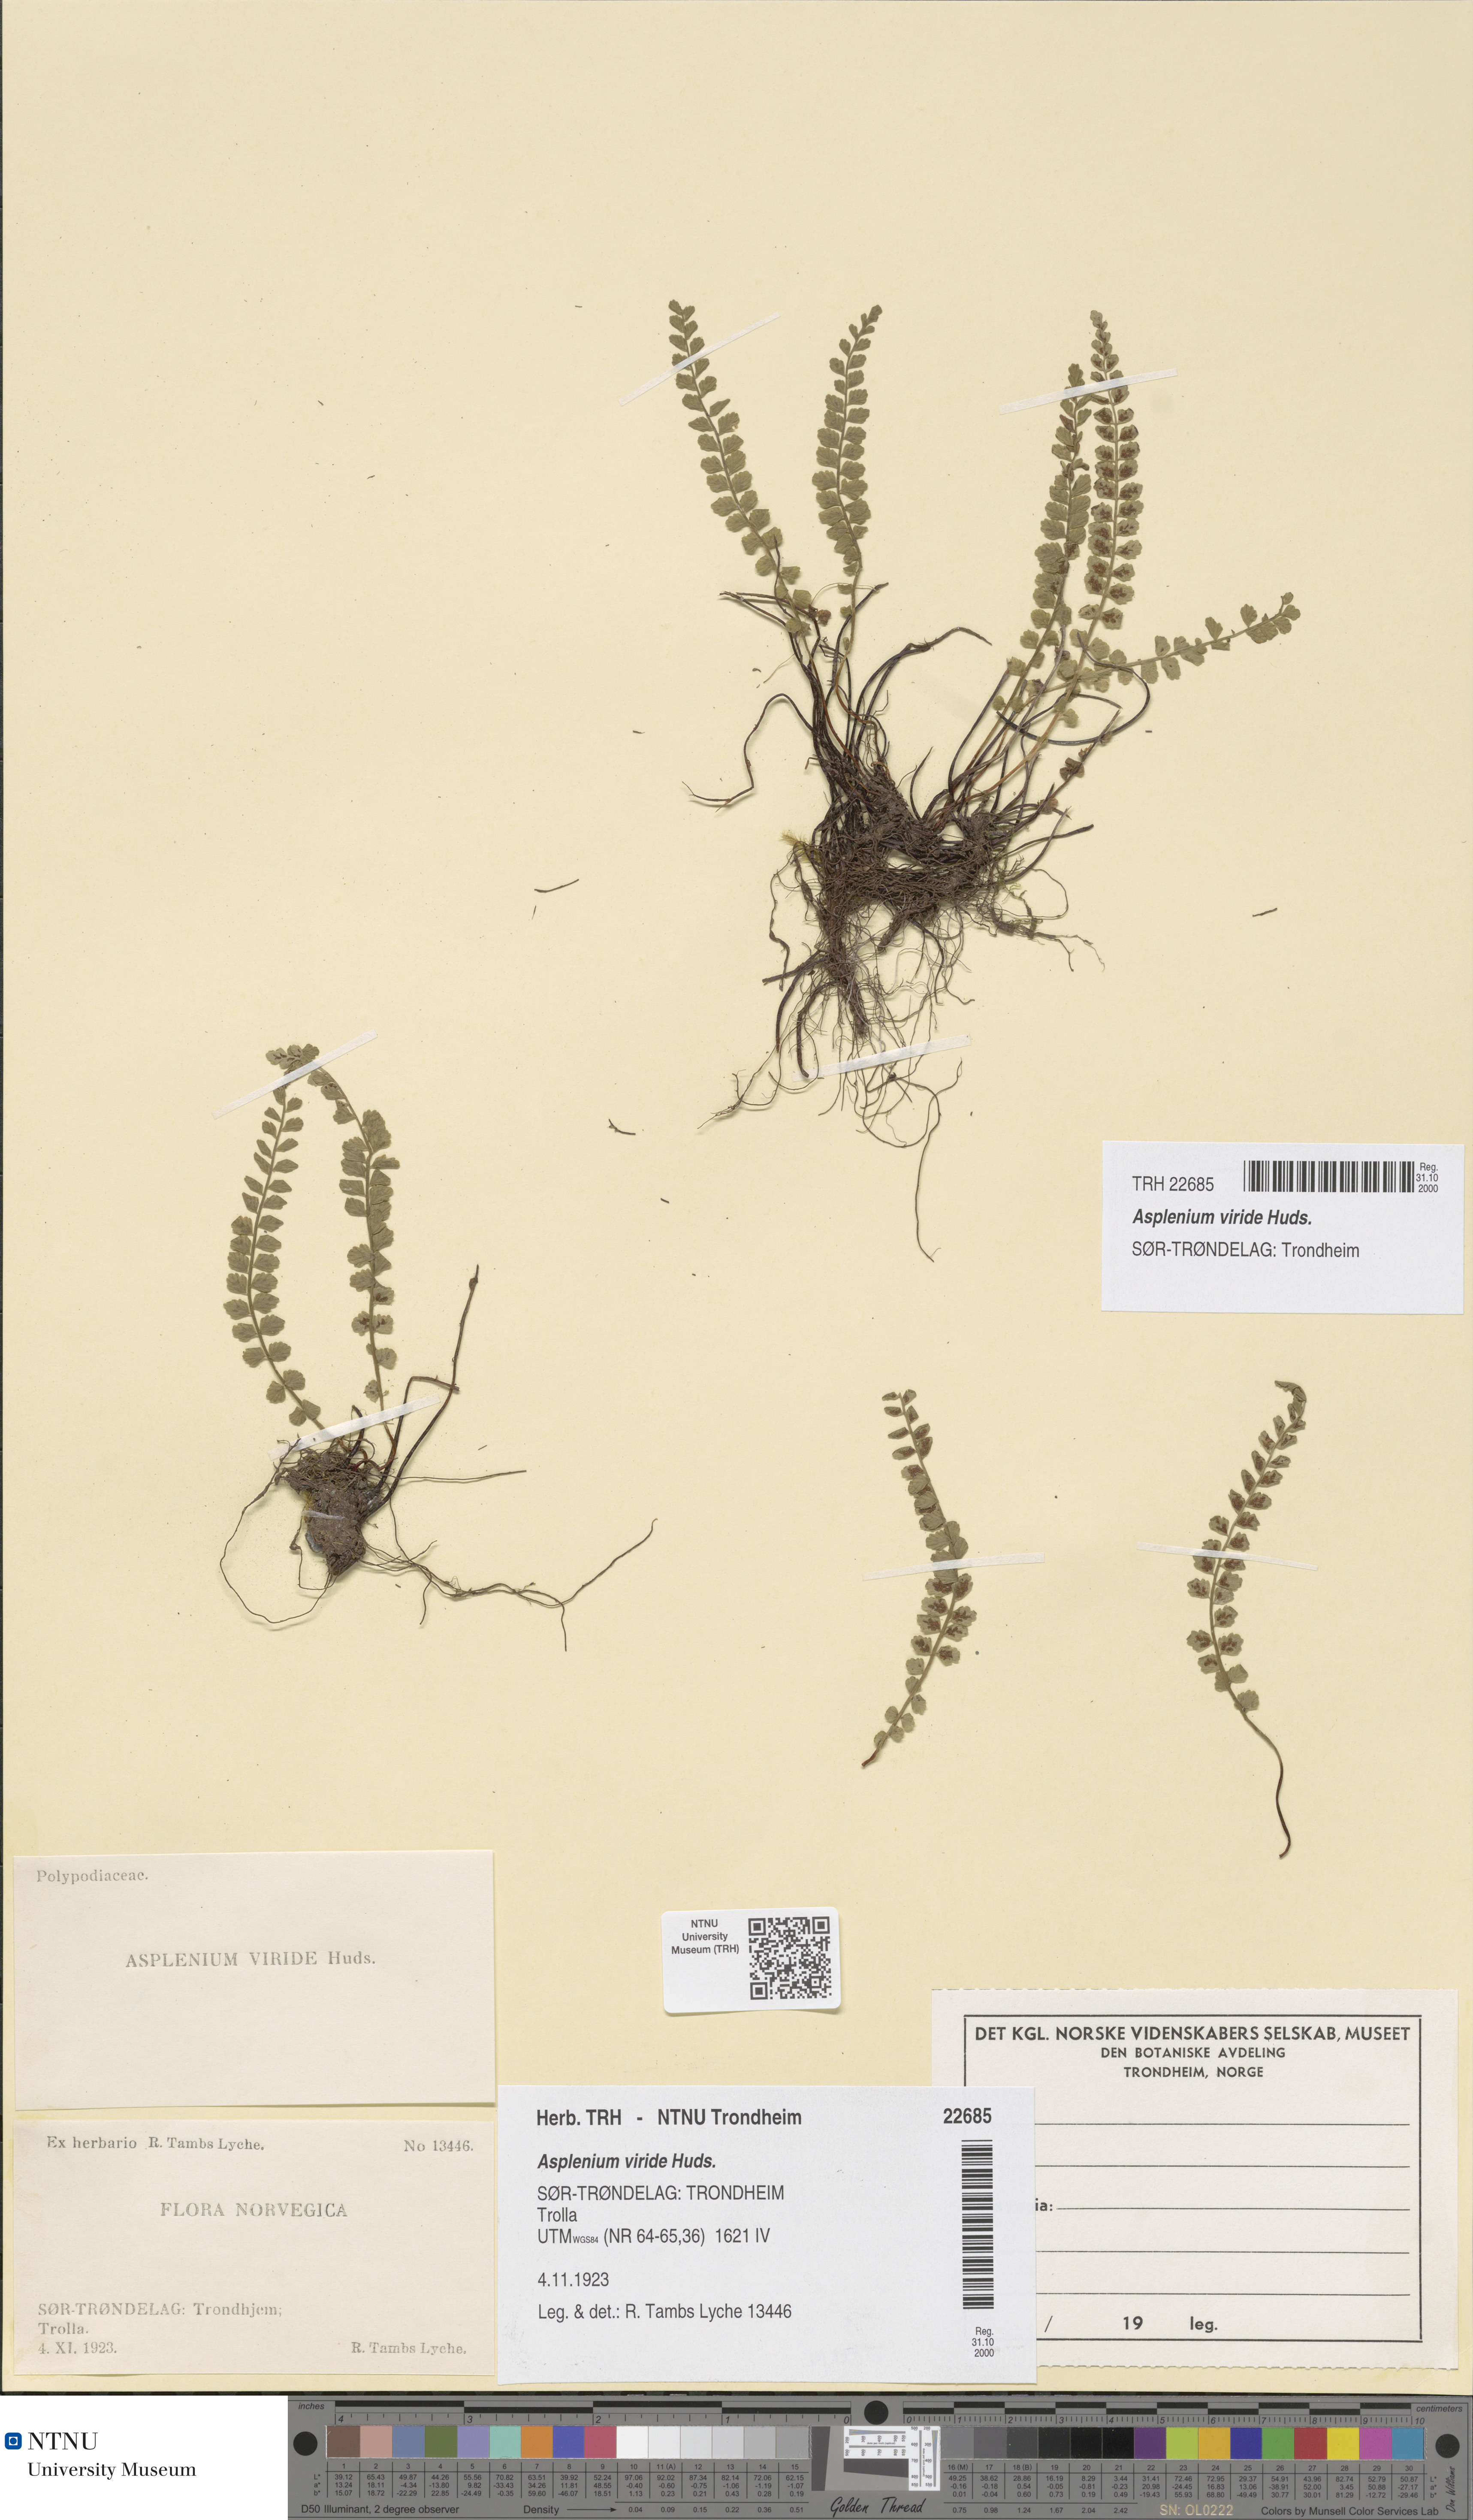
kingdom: Plantae
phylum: Tracheophyta
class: Polypodiopsida
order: Polypodiales
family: Aspleniaceae
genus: Asplenium
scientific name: Asplenium viride
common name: Green spleenwort
